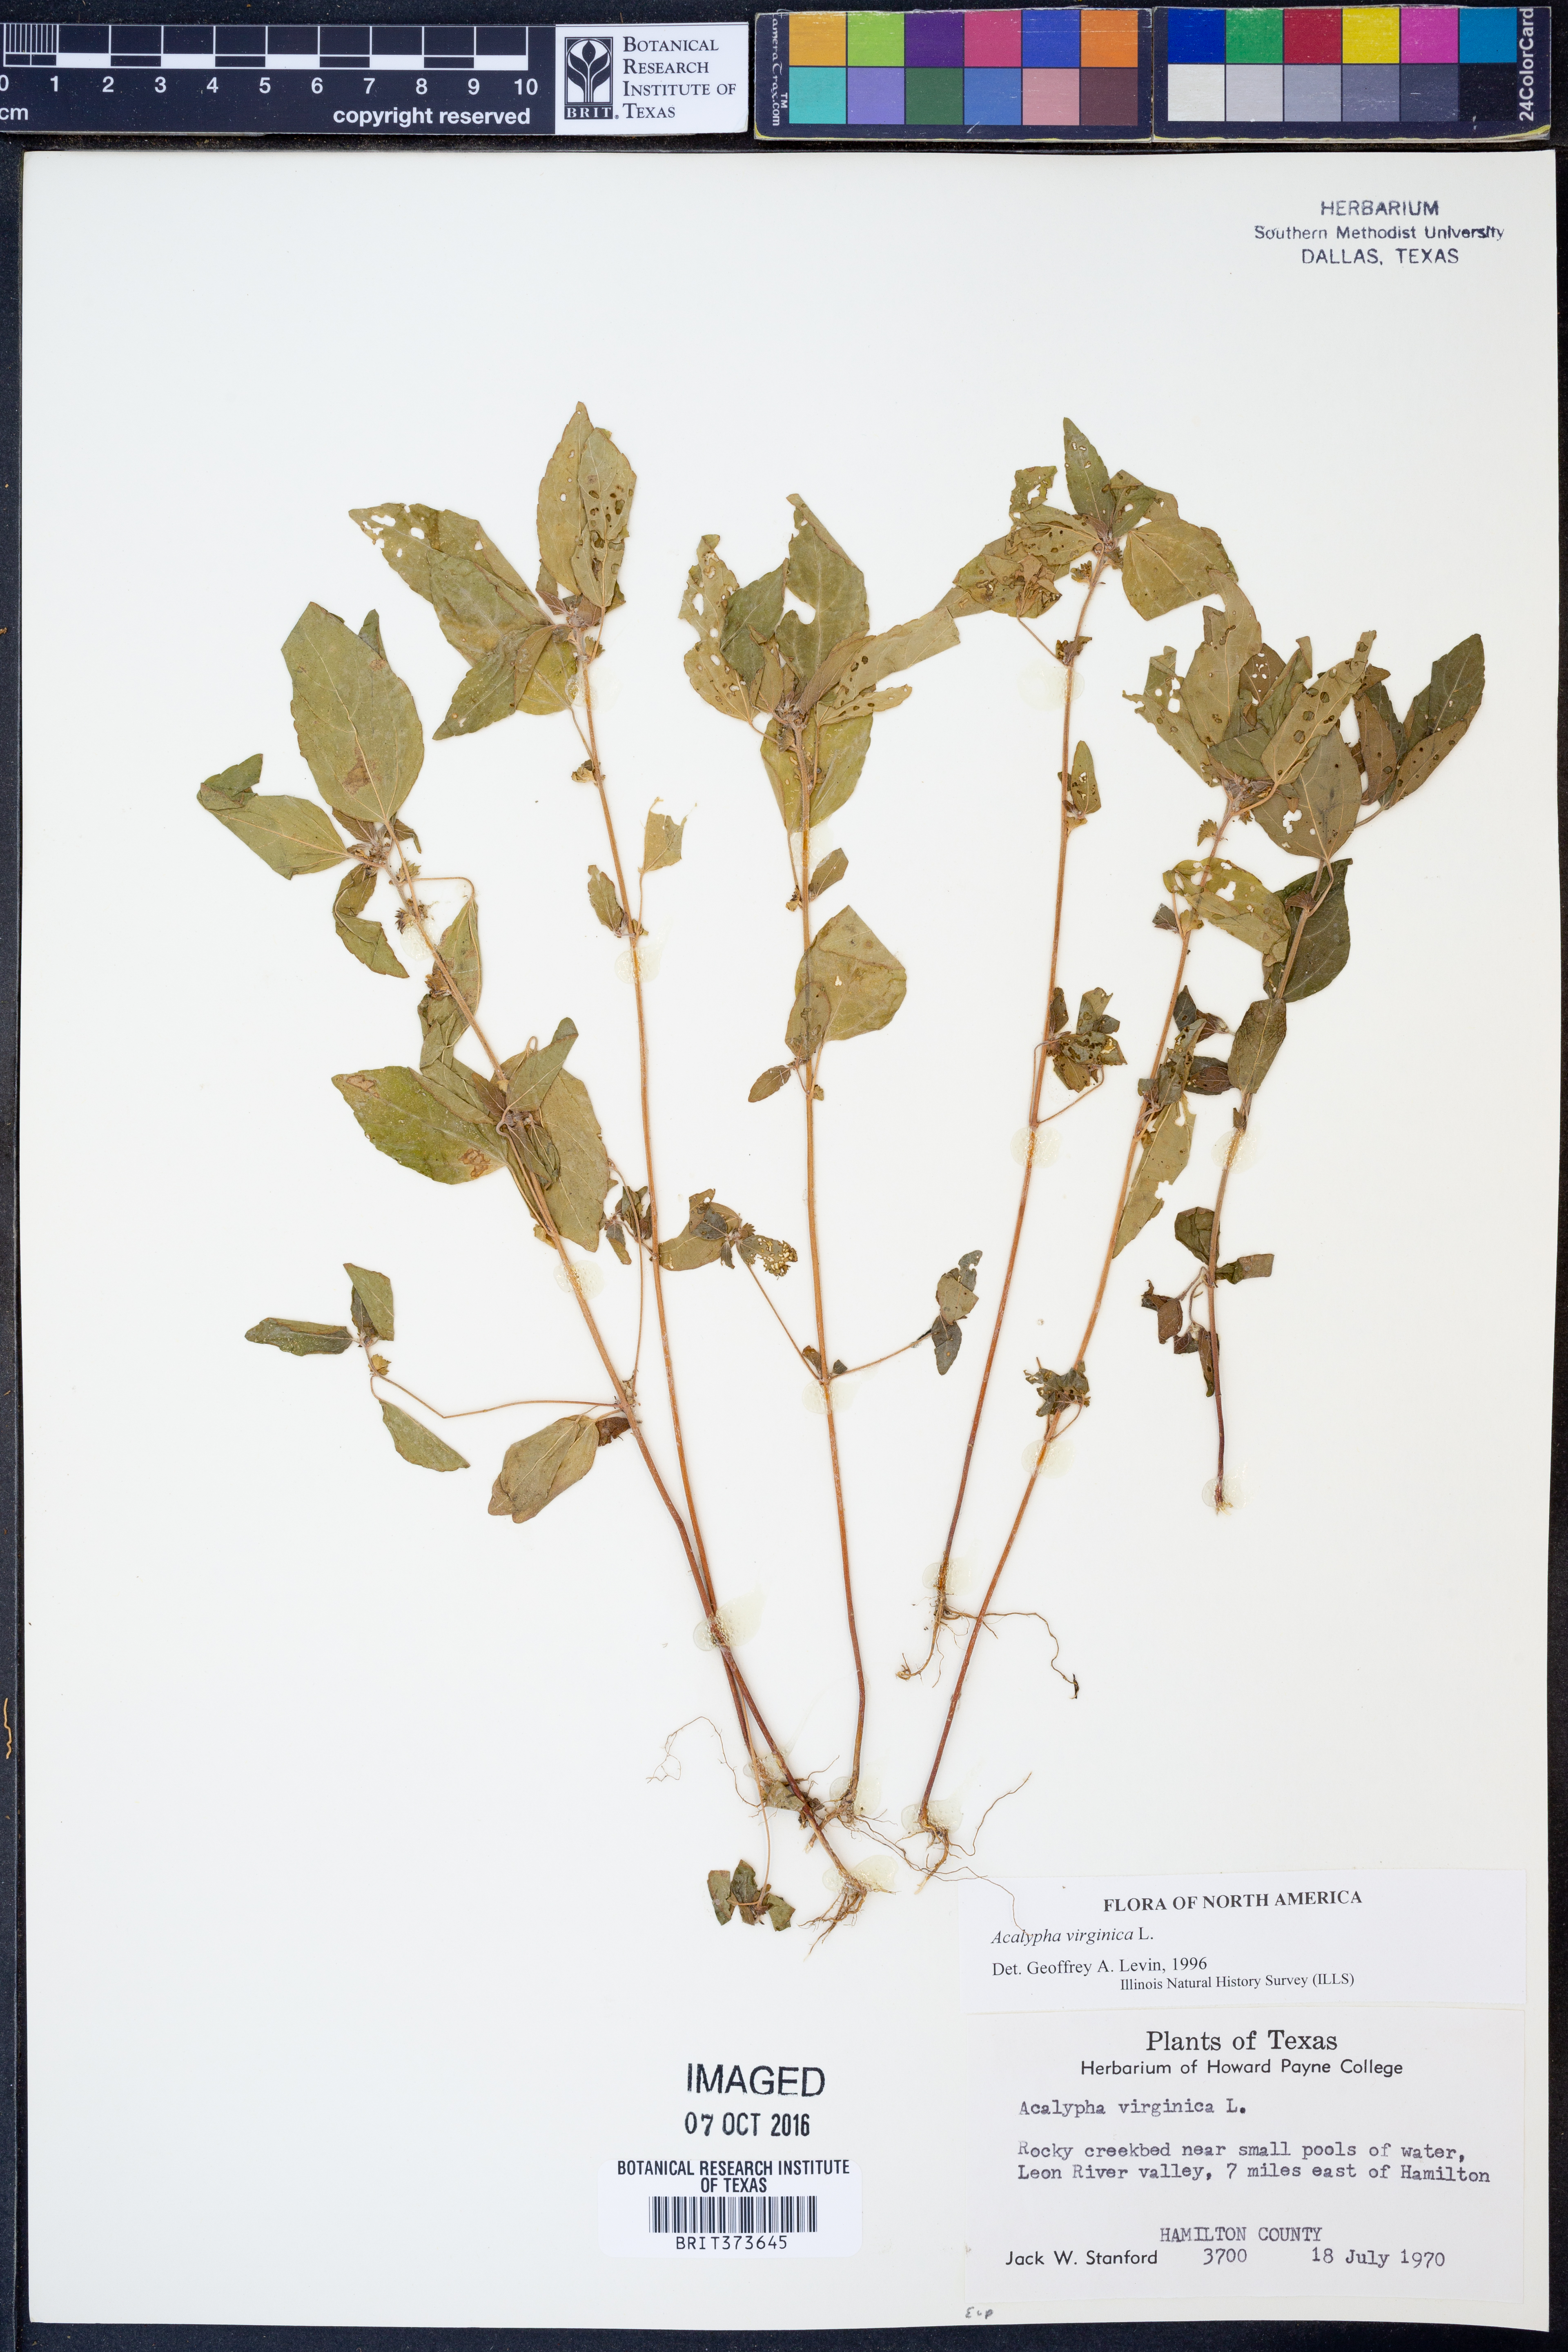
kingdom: Plantae
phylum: Tracheophyta
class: Magnoliopsida
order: Malpighiales
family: Euphorbiaceae
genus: Acalypha
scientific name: Acalypha virginica
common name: Virginia copperleaf
